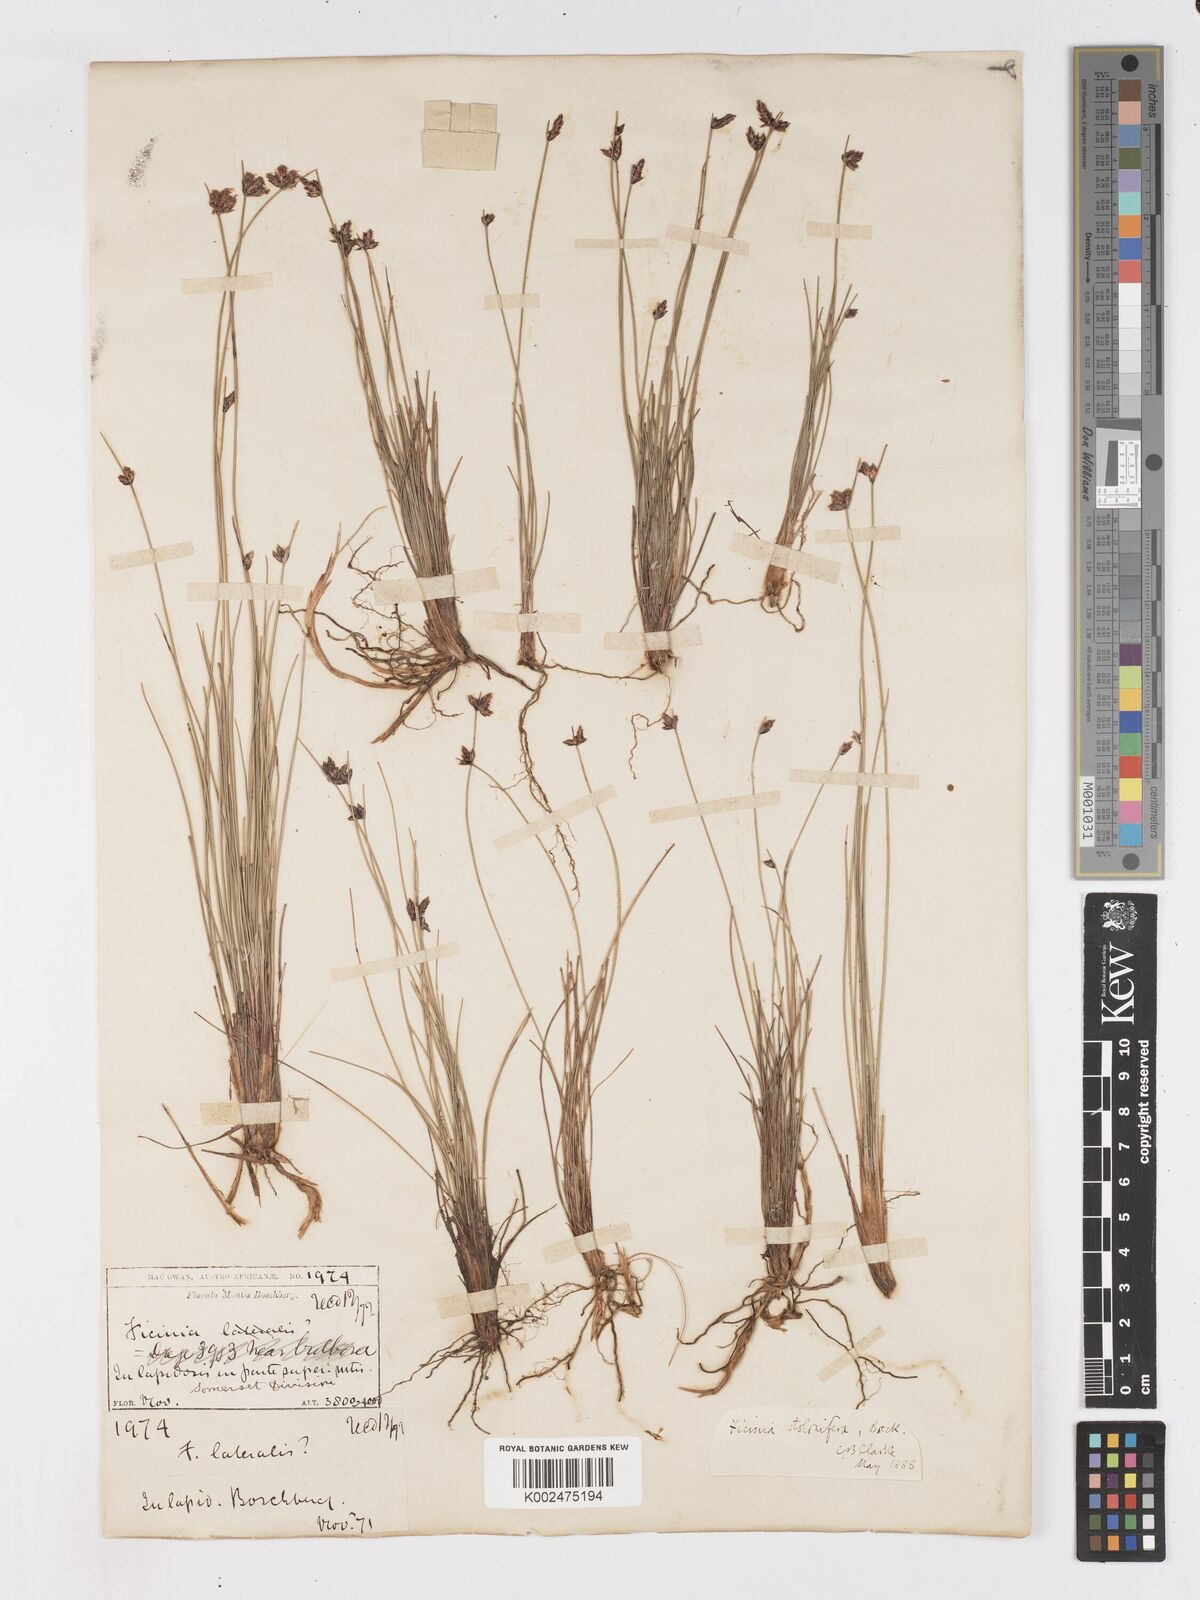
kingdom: Plantae
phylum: Tracheophyta
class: Liliopsida
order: Poales
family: Cyperaceae
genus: Ficinia
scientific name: Ficinia stolonifera
